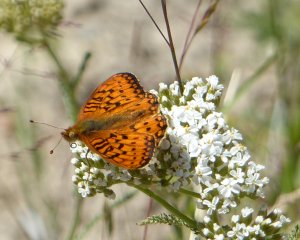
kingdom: Animalia
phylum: Arthropoda
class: Insecta
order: Lepidoptera
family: Nymphalidae
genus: Speyeria
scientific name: Speyeria zerene
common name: Zerene Fritillary
